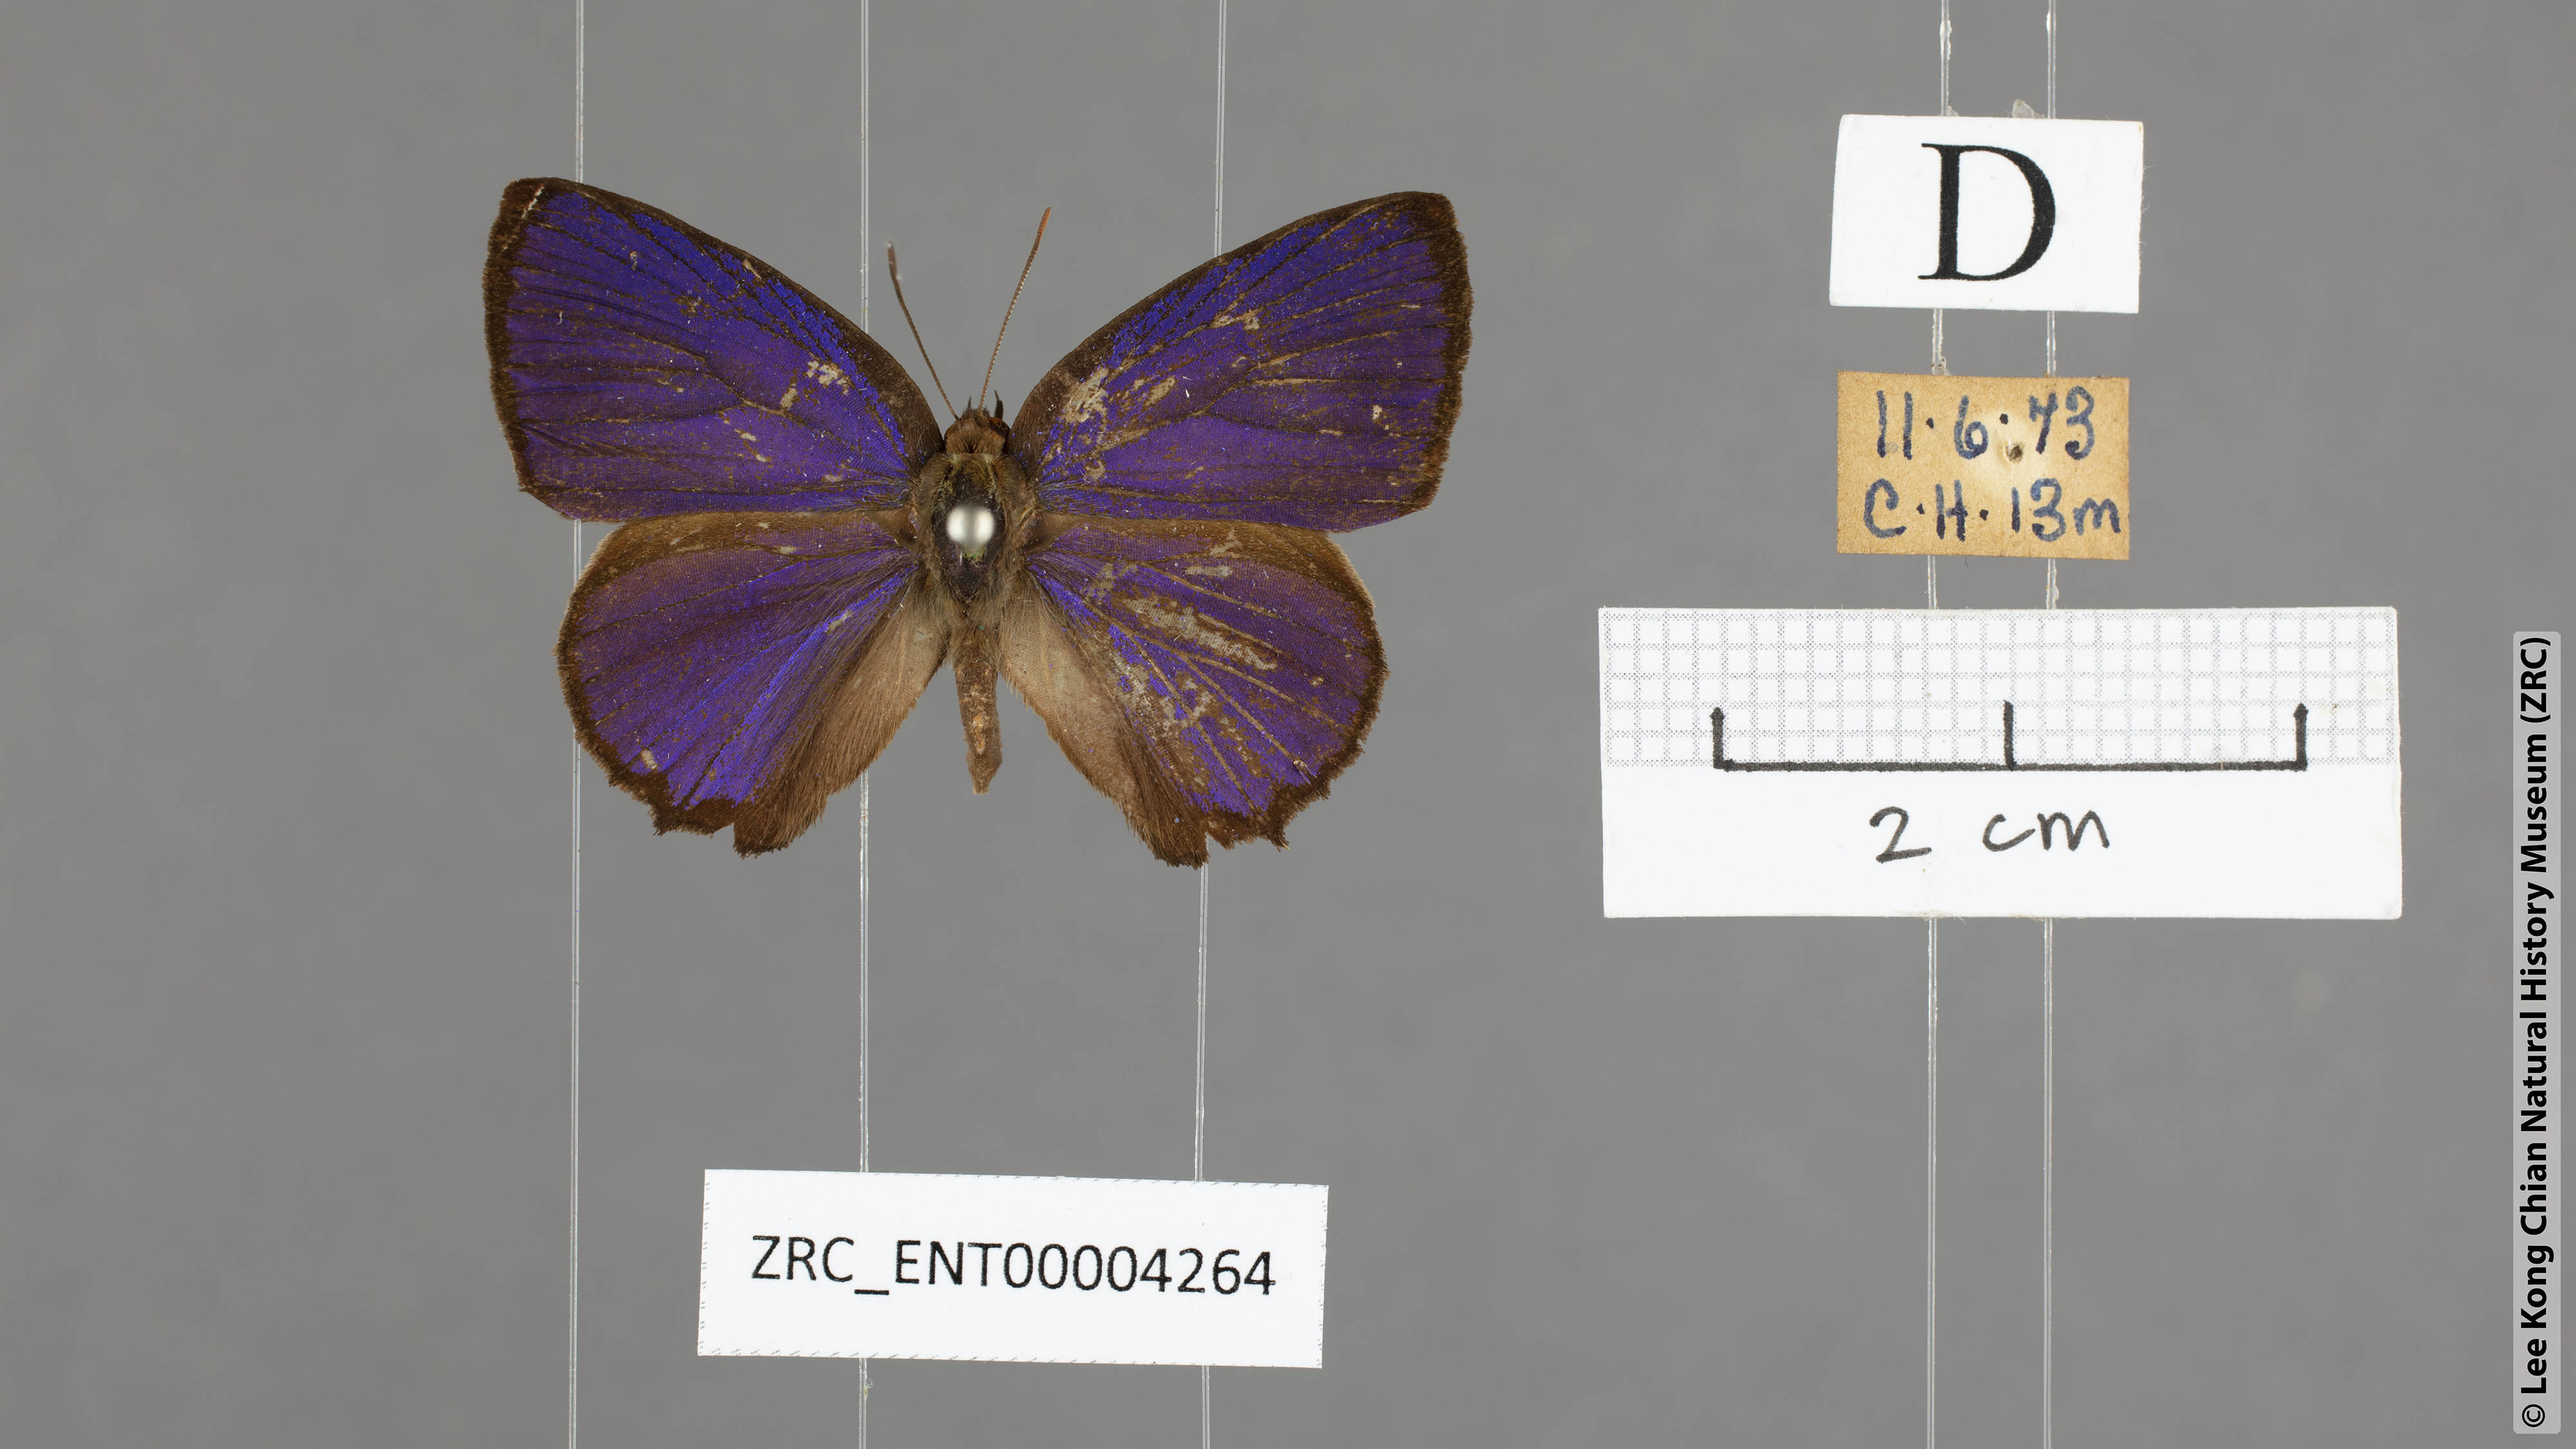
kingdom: Animalia
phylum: Arthropoda
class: Insecta
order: Lepidoptera
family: Lycaenidae
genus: Flos
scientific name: Flos
